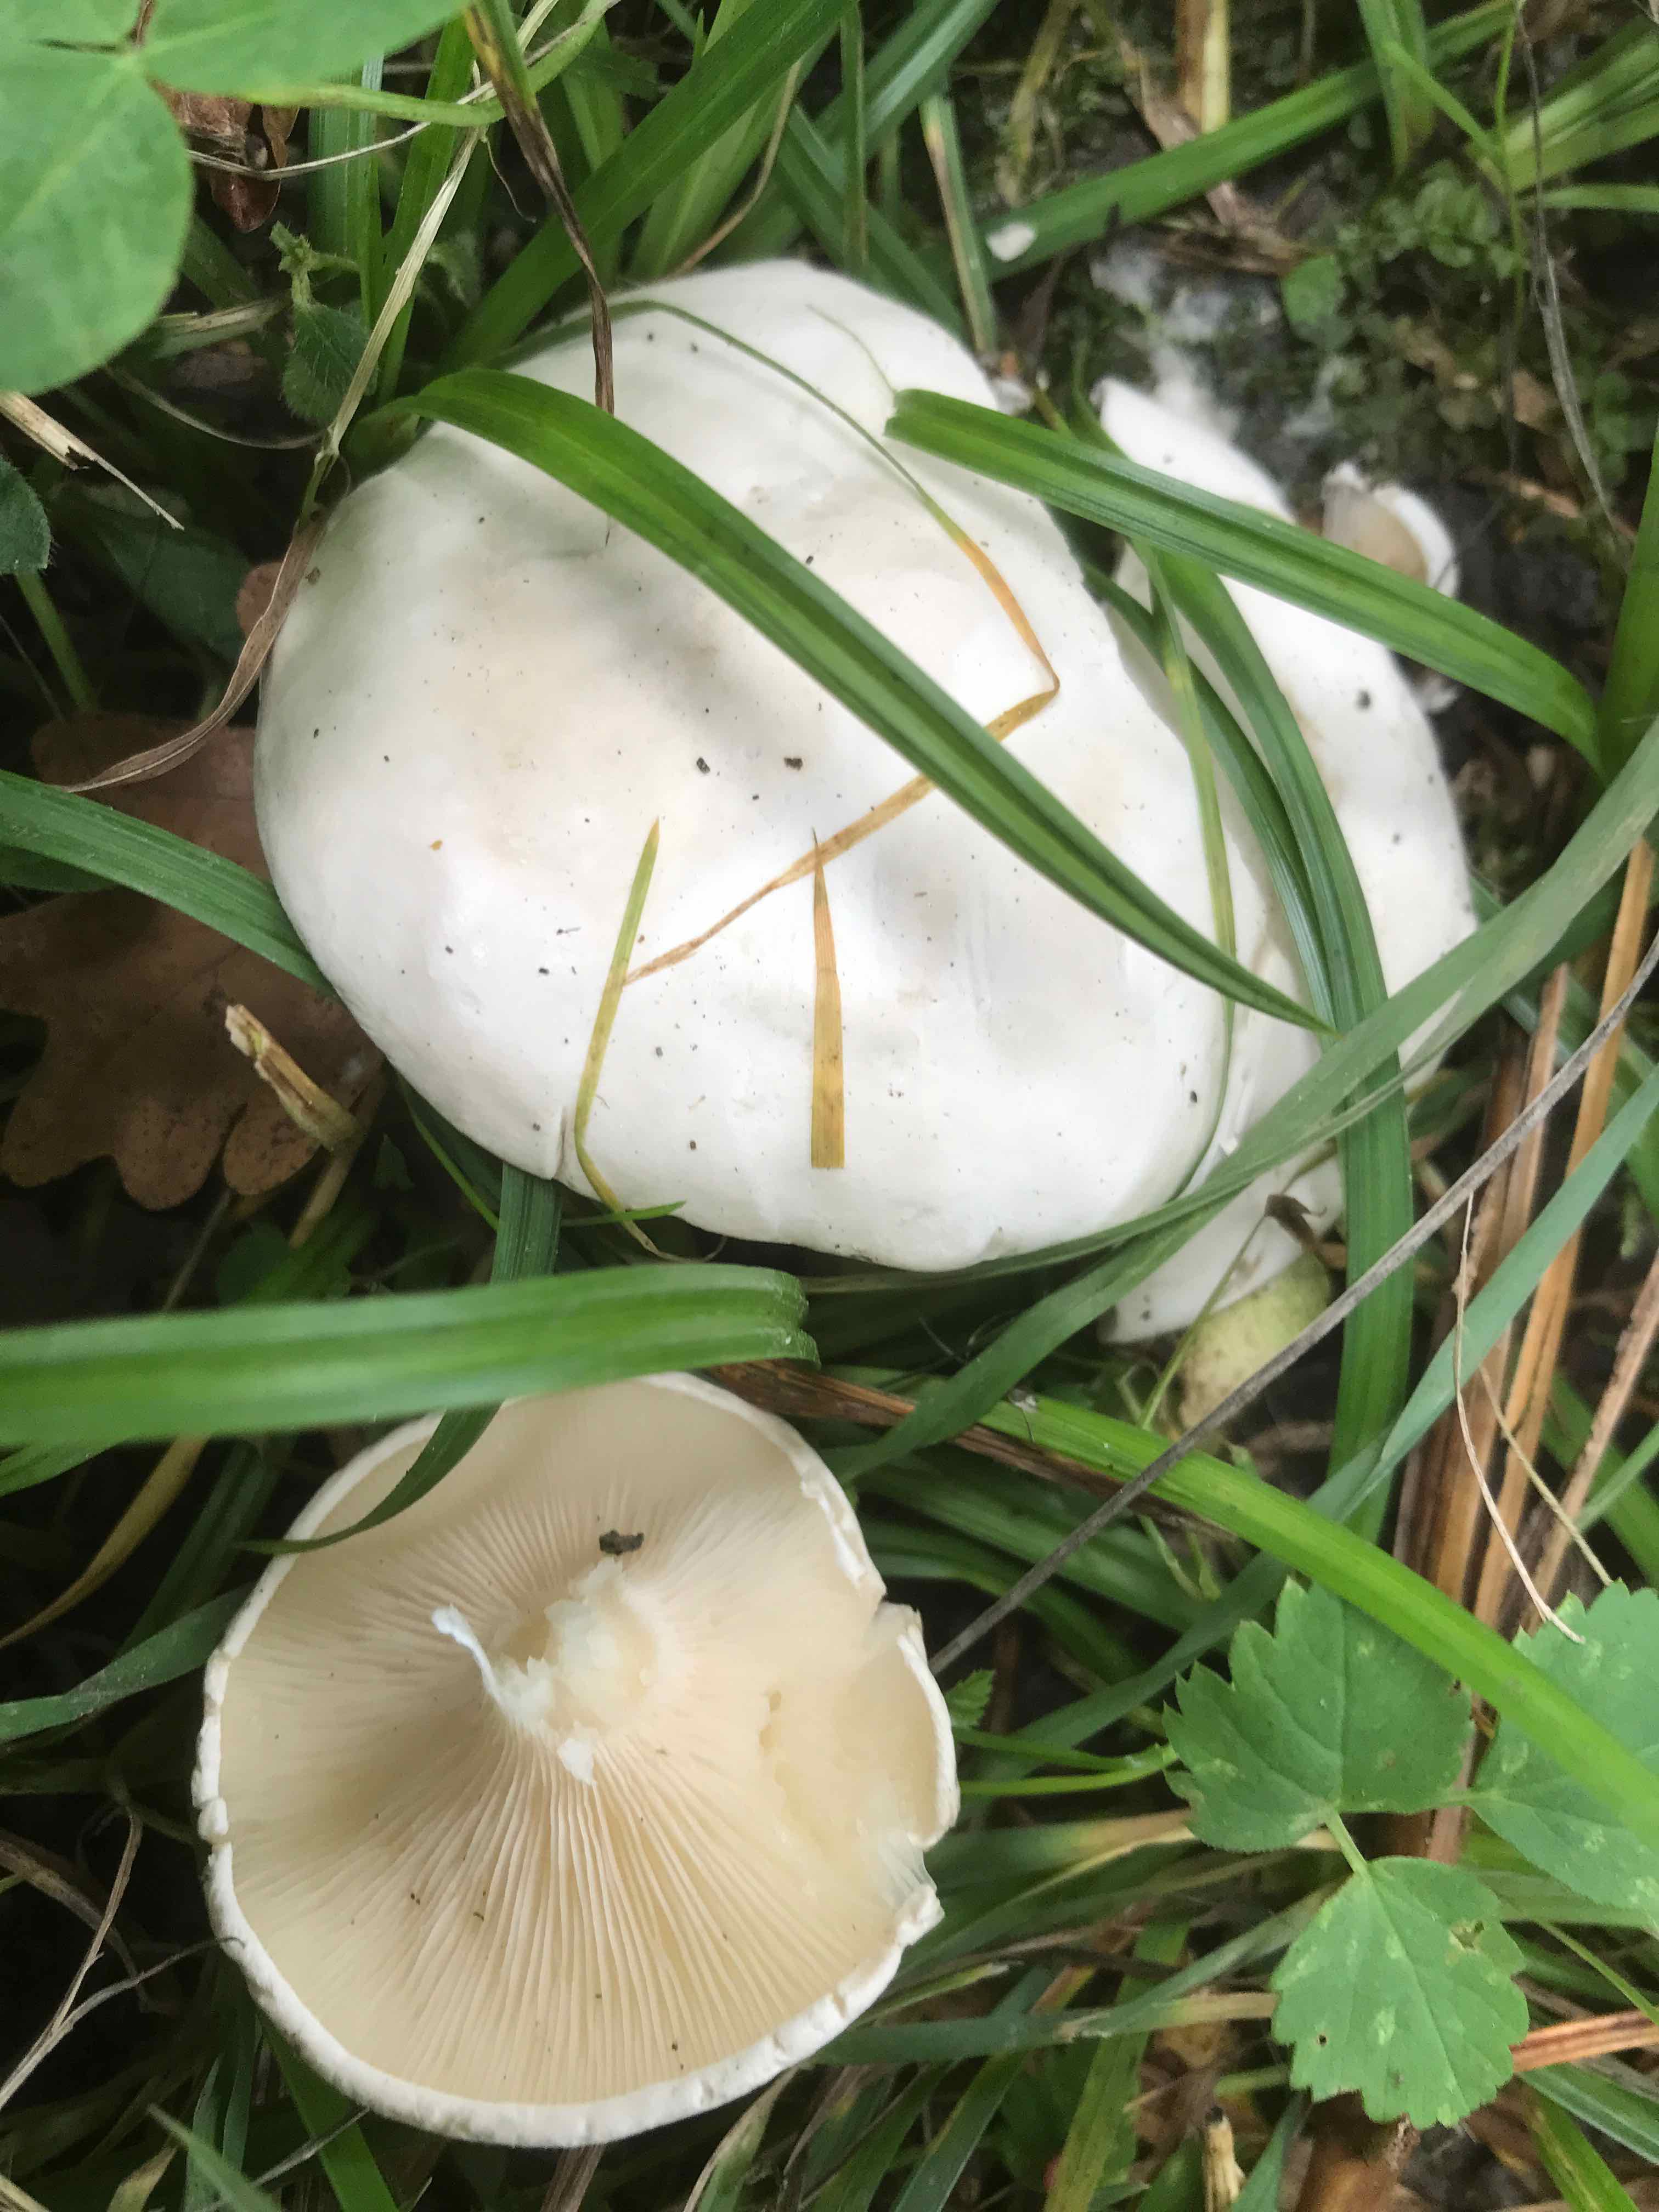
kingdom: Fungi
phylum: Basidiomycota
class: Agaricomycetes
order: Agaricales
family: Entolomataceae
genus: Clitopilus
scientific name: Clitopilus prunulus
